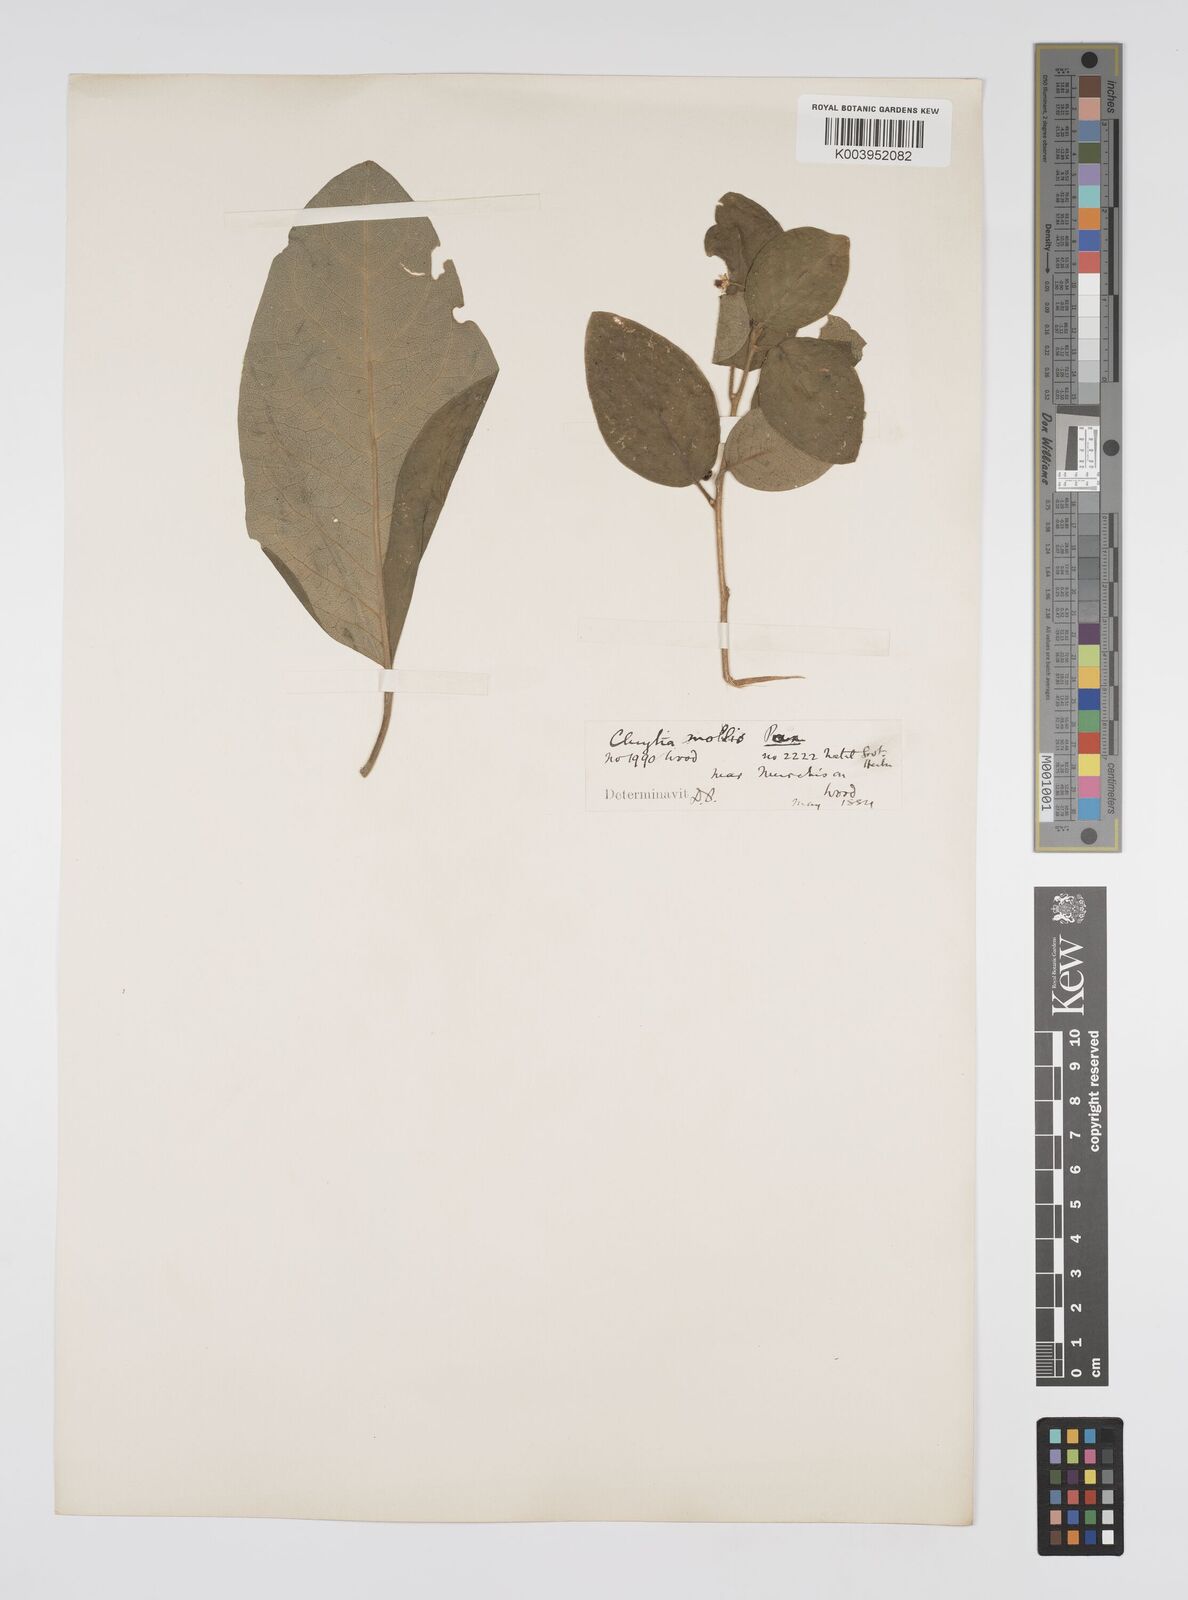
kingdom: Plantae
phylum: Tracheophyta
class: Magnoliopsida
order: Malpighiales
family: Peraceae
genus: Clutia
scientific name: Clutia abyssinica
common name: Large lightning bush
